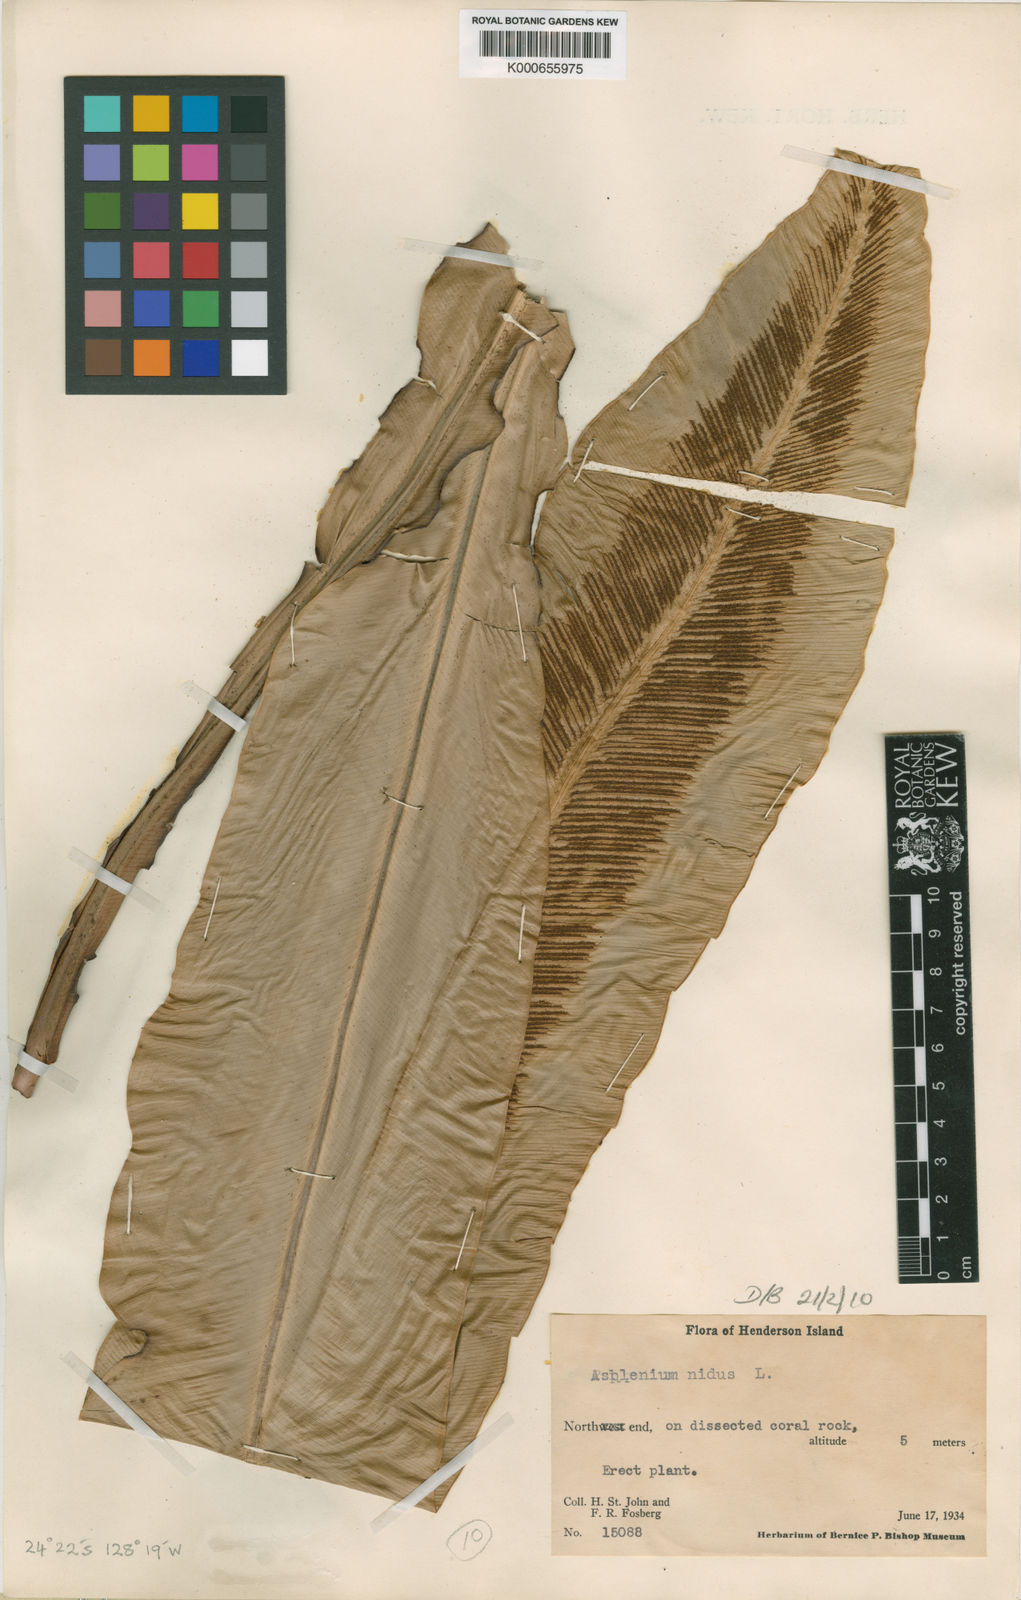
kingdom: Plantae
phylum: Tracheophyta
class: Polypodiopsida
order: Polypodiales
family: Aspleniaceae
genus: Asplenium
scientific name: Asplenium australasicum
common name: Bird's-nest fern
